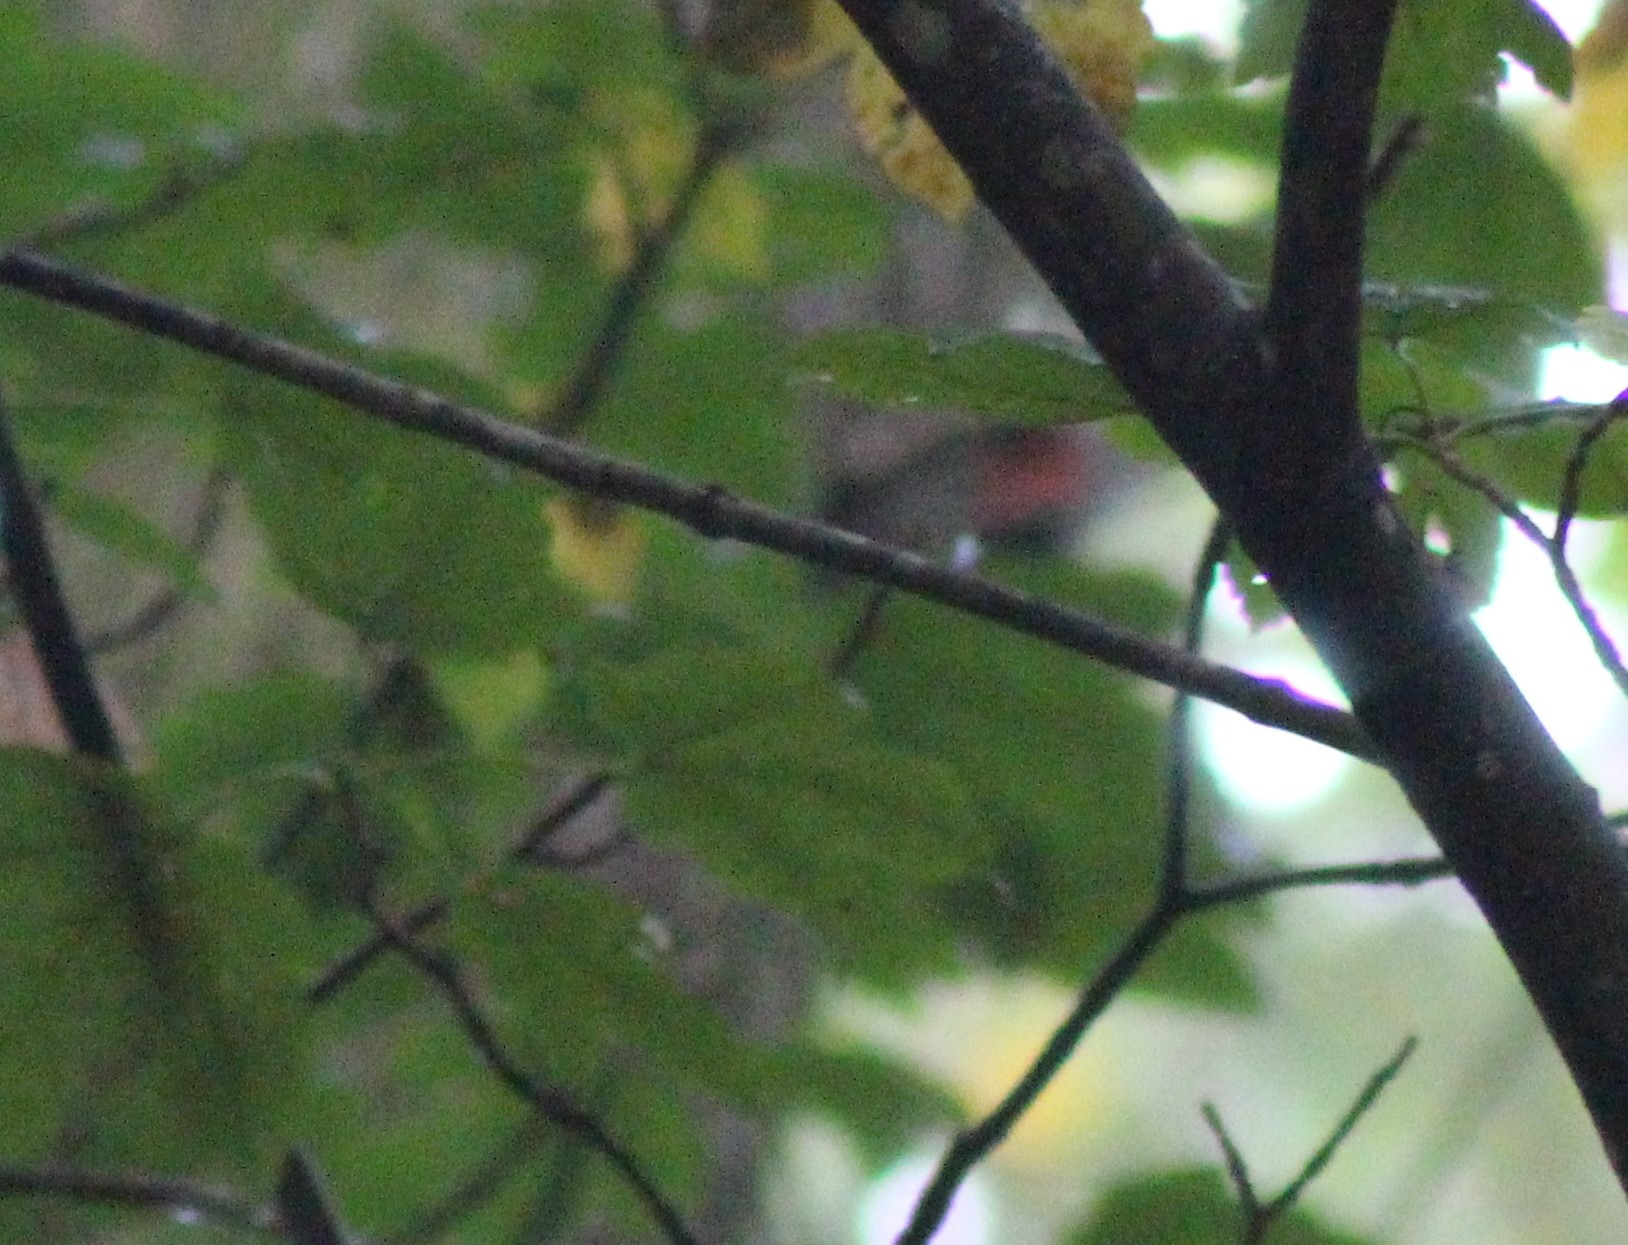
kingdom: Animalia
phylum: Chordata
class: Aves
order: Piciformes
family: Picidae
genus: Dendrocopos
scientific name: Dendrocopos major
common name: Stor flagspætte
